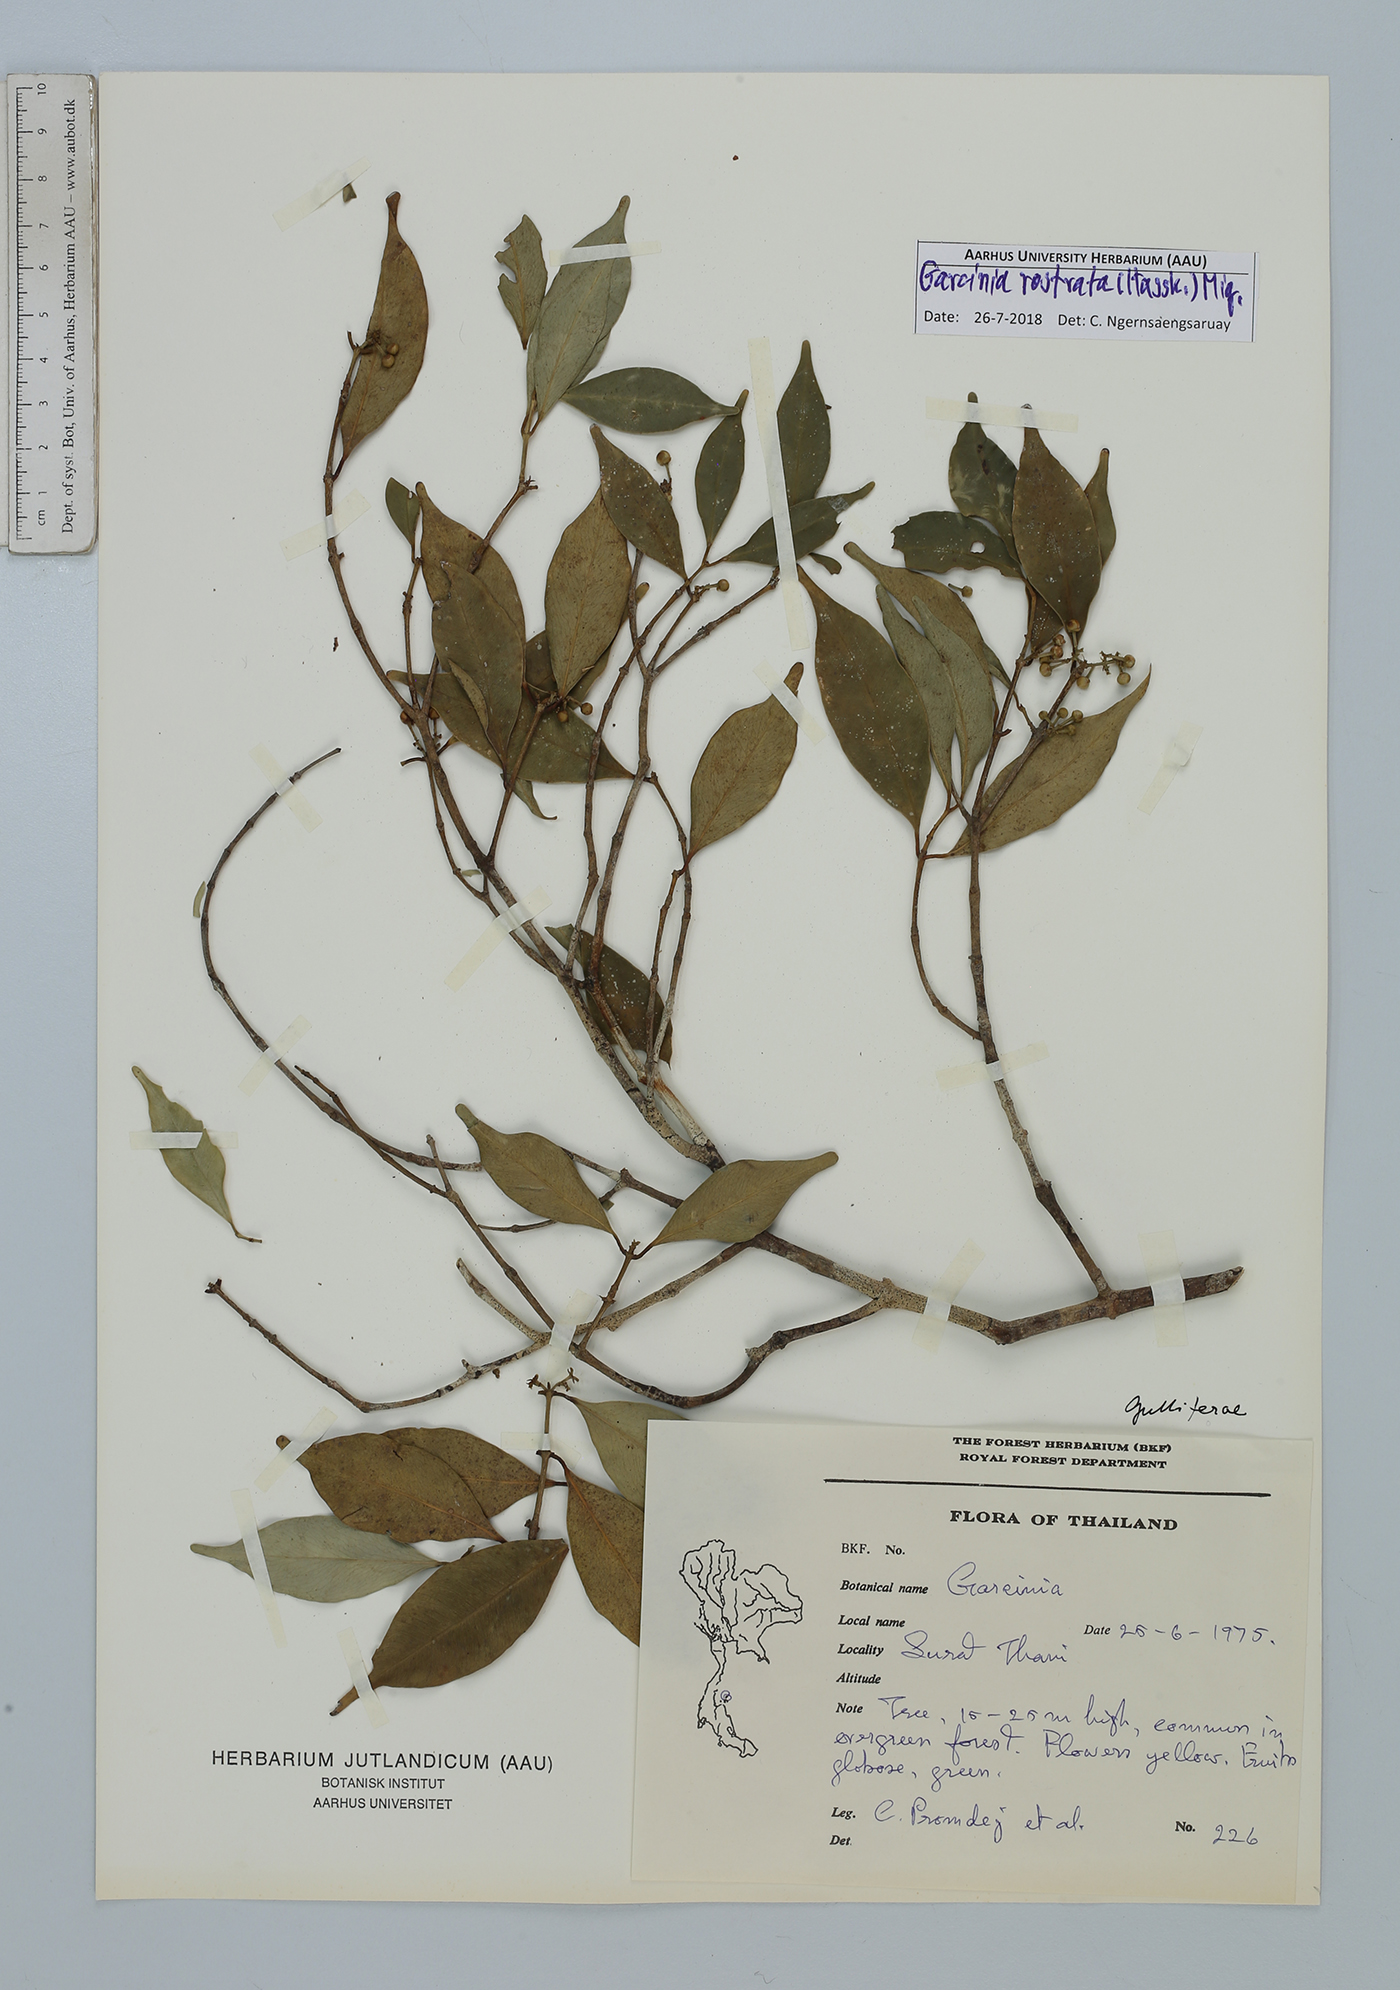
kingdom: Plantae
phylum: Tracheophyta
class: Magnoliopsida
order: Malpighiales
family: Clusiaceae
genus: Garcinia
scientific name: Garcinia rostrata
